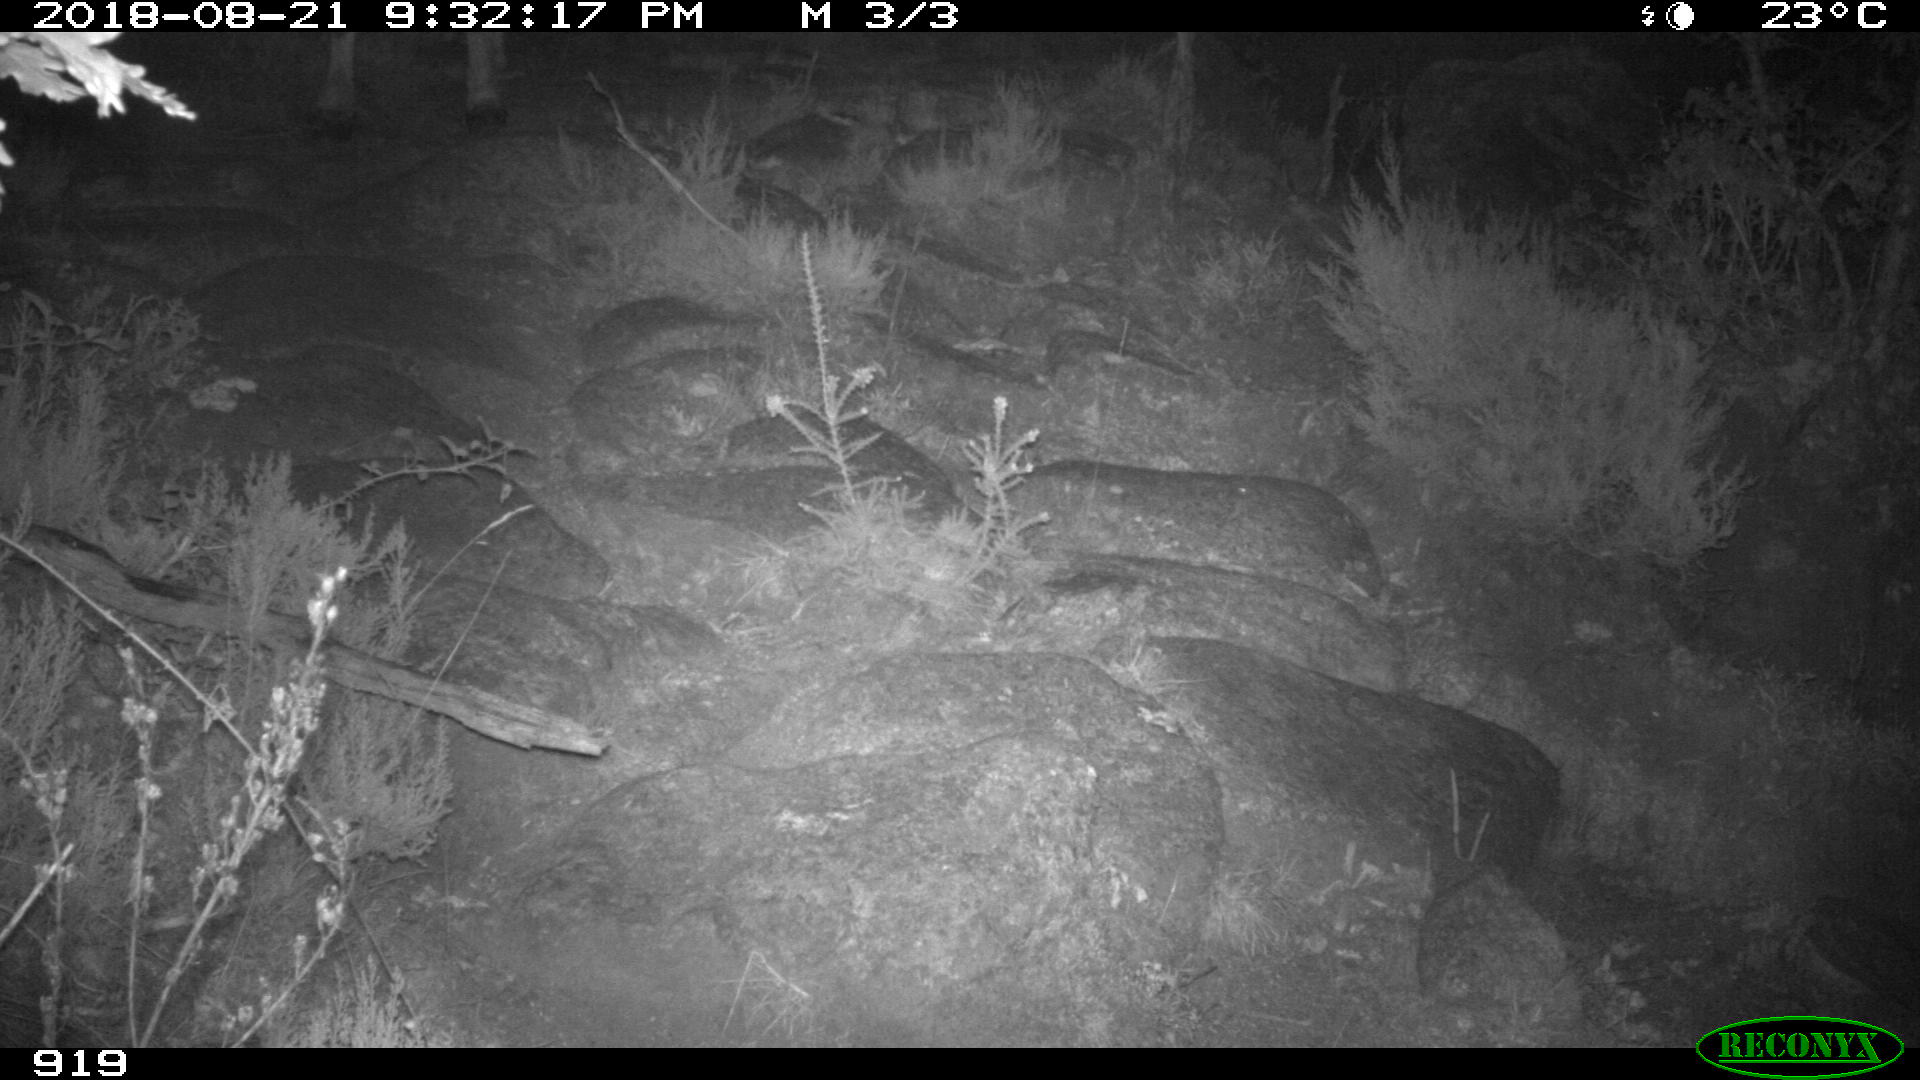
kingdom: Animalia
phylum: Chordata
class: Mammalia
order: Artiodactyla
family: Bovidae
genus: Bos
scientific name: Bos taurus
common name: Domesticated cattle
